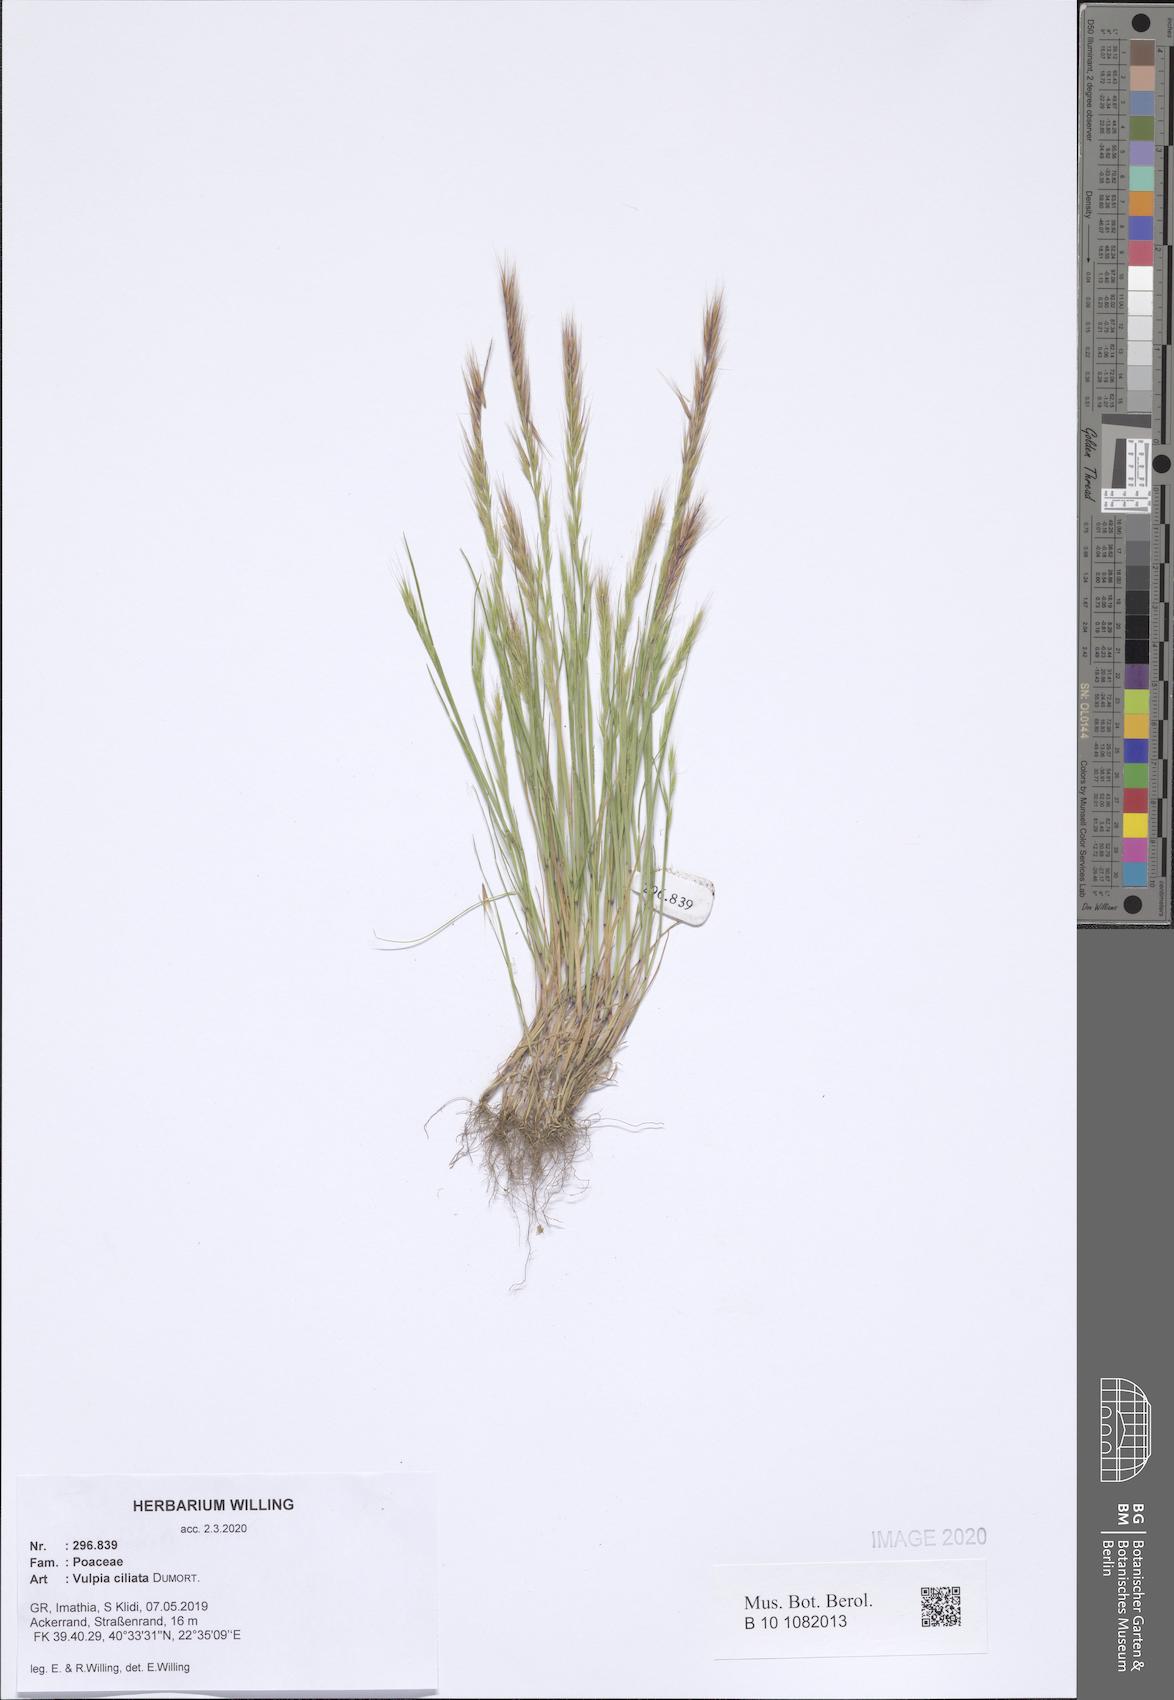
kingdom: Plantae
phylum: Tracheophyta
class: Liliopsida
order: Poales
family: Poaceae
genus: Festuca
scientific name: Festuca ambigua
